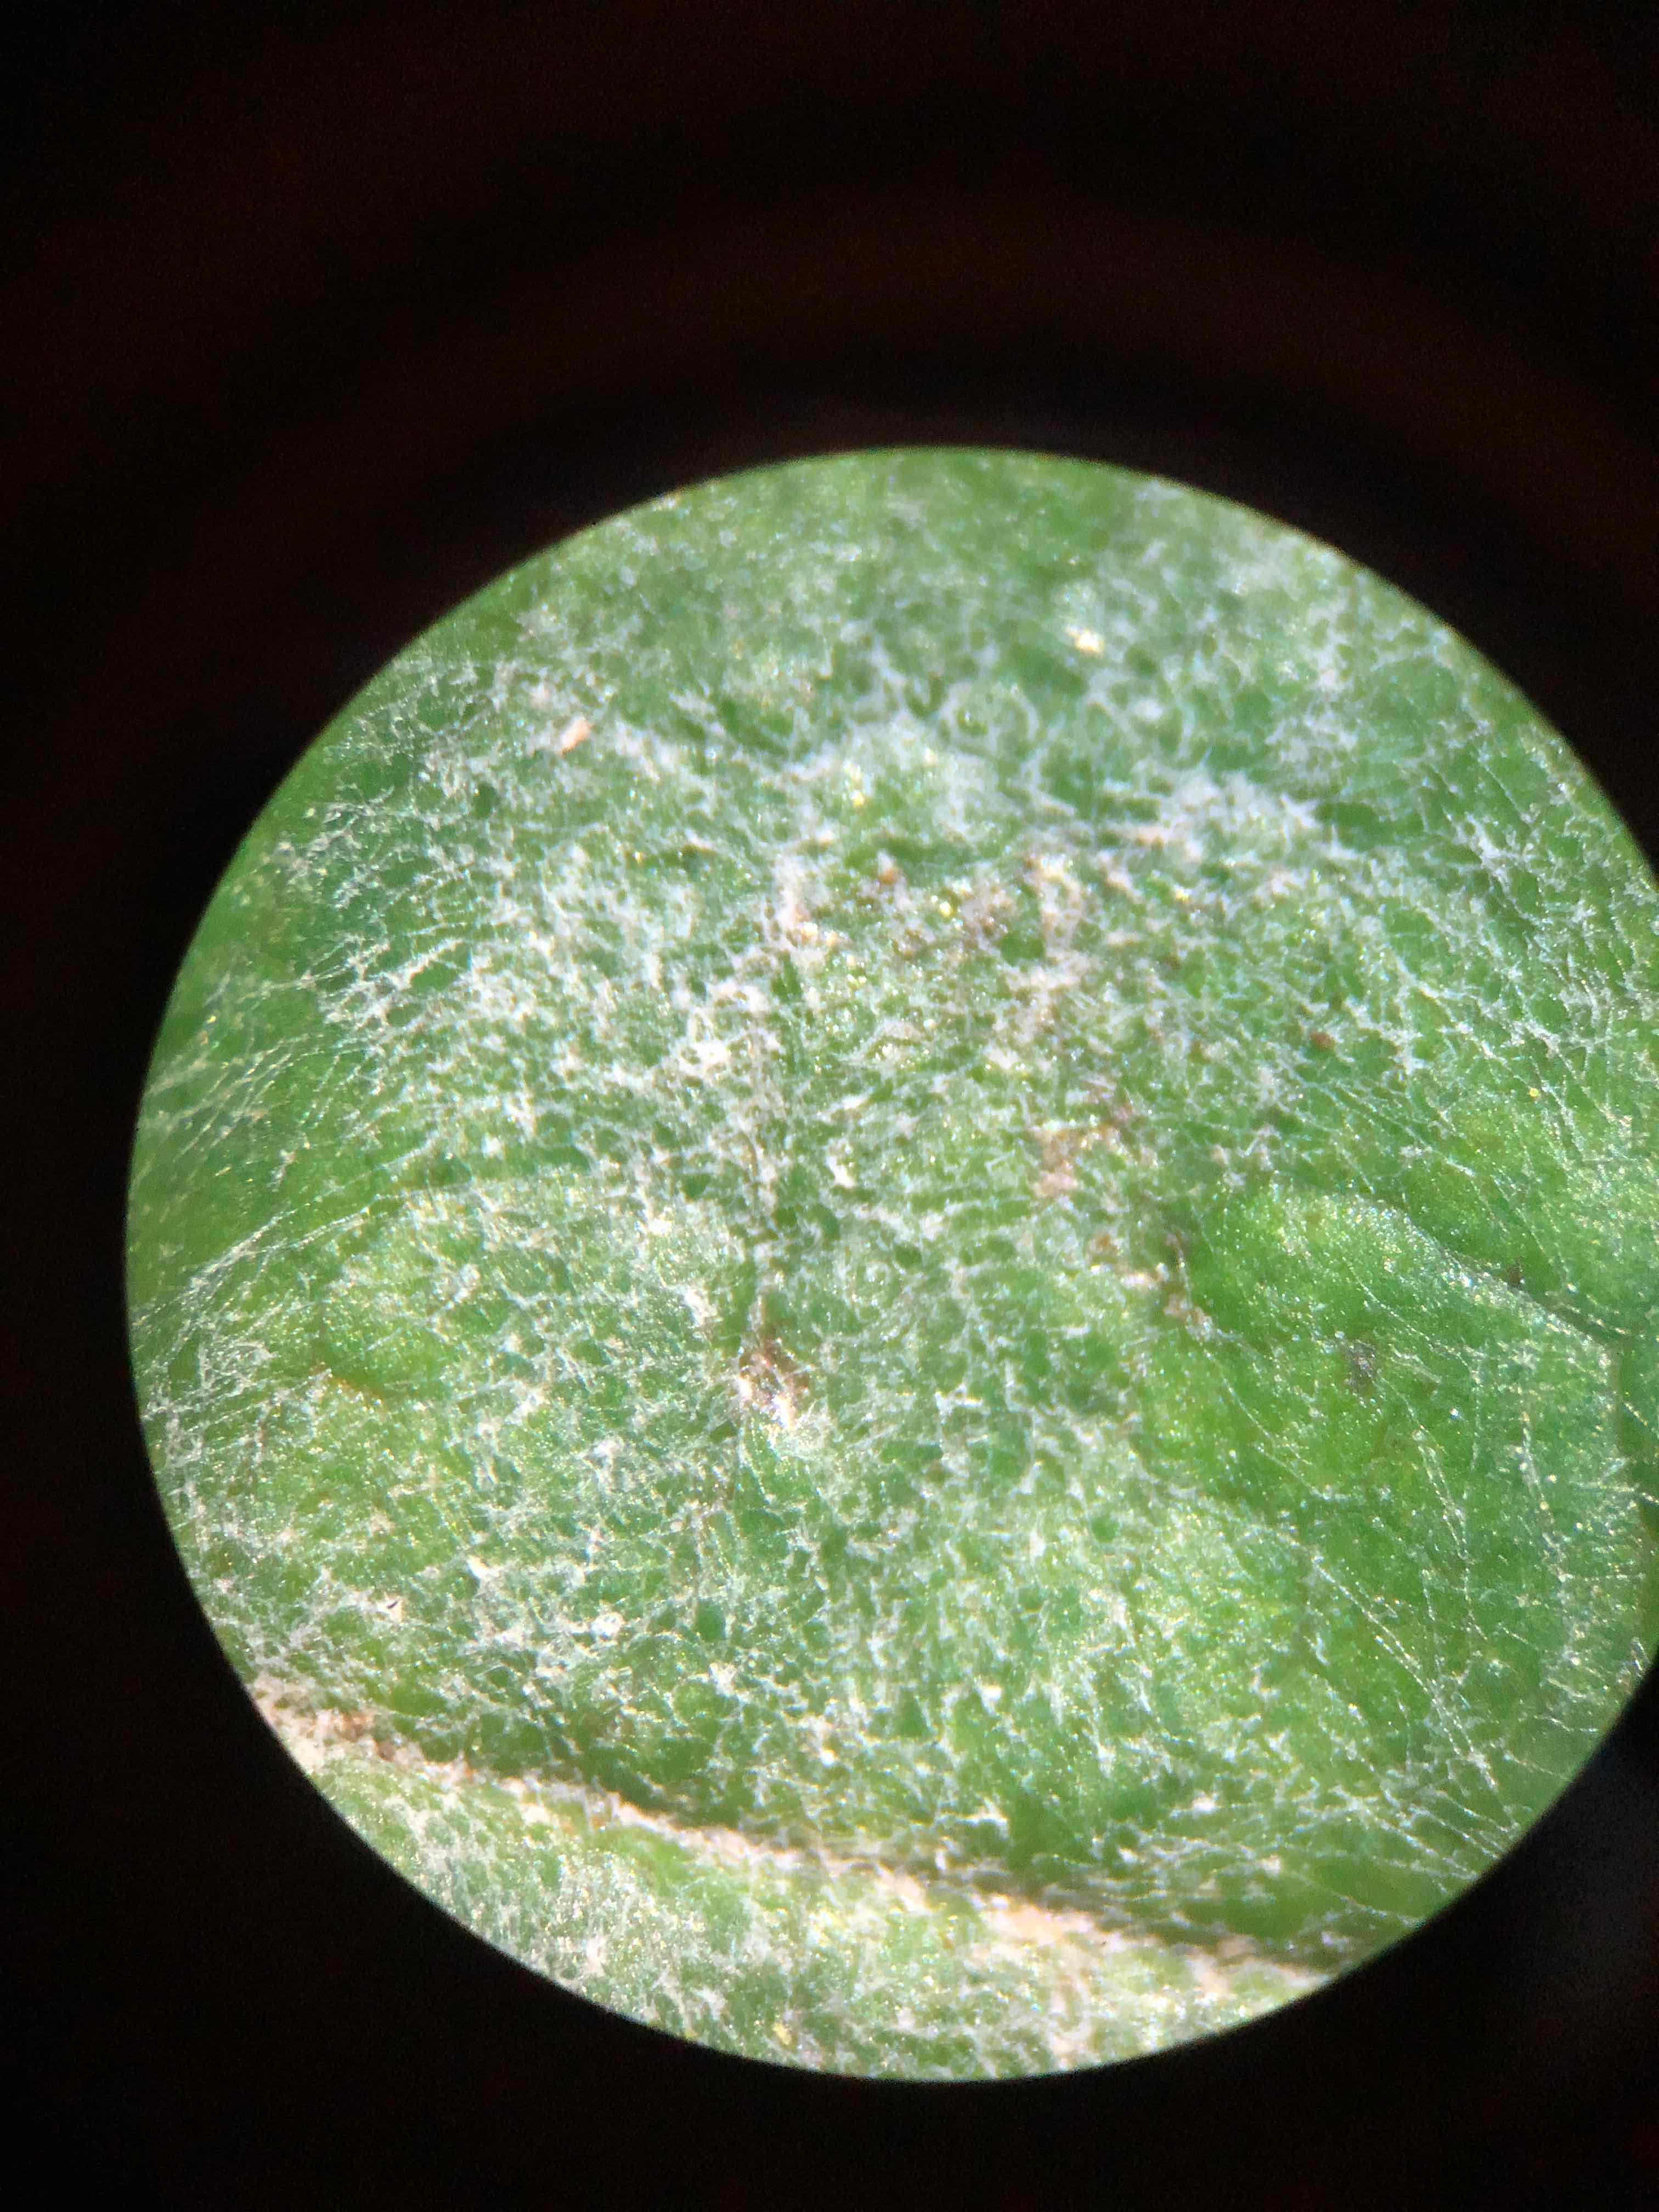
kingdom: Fungi
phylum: Ascomycota
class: Leotiomycetes
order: Helotiales
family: Erysiphaceae
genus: Podosphaera
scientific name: Podosphaera filipendulae
